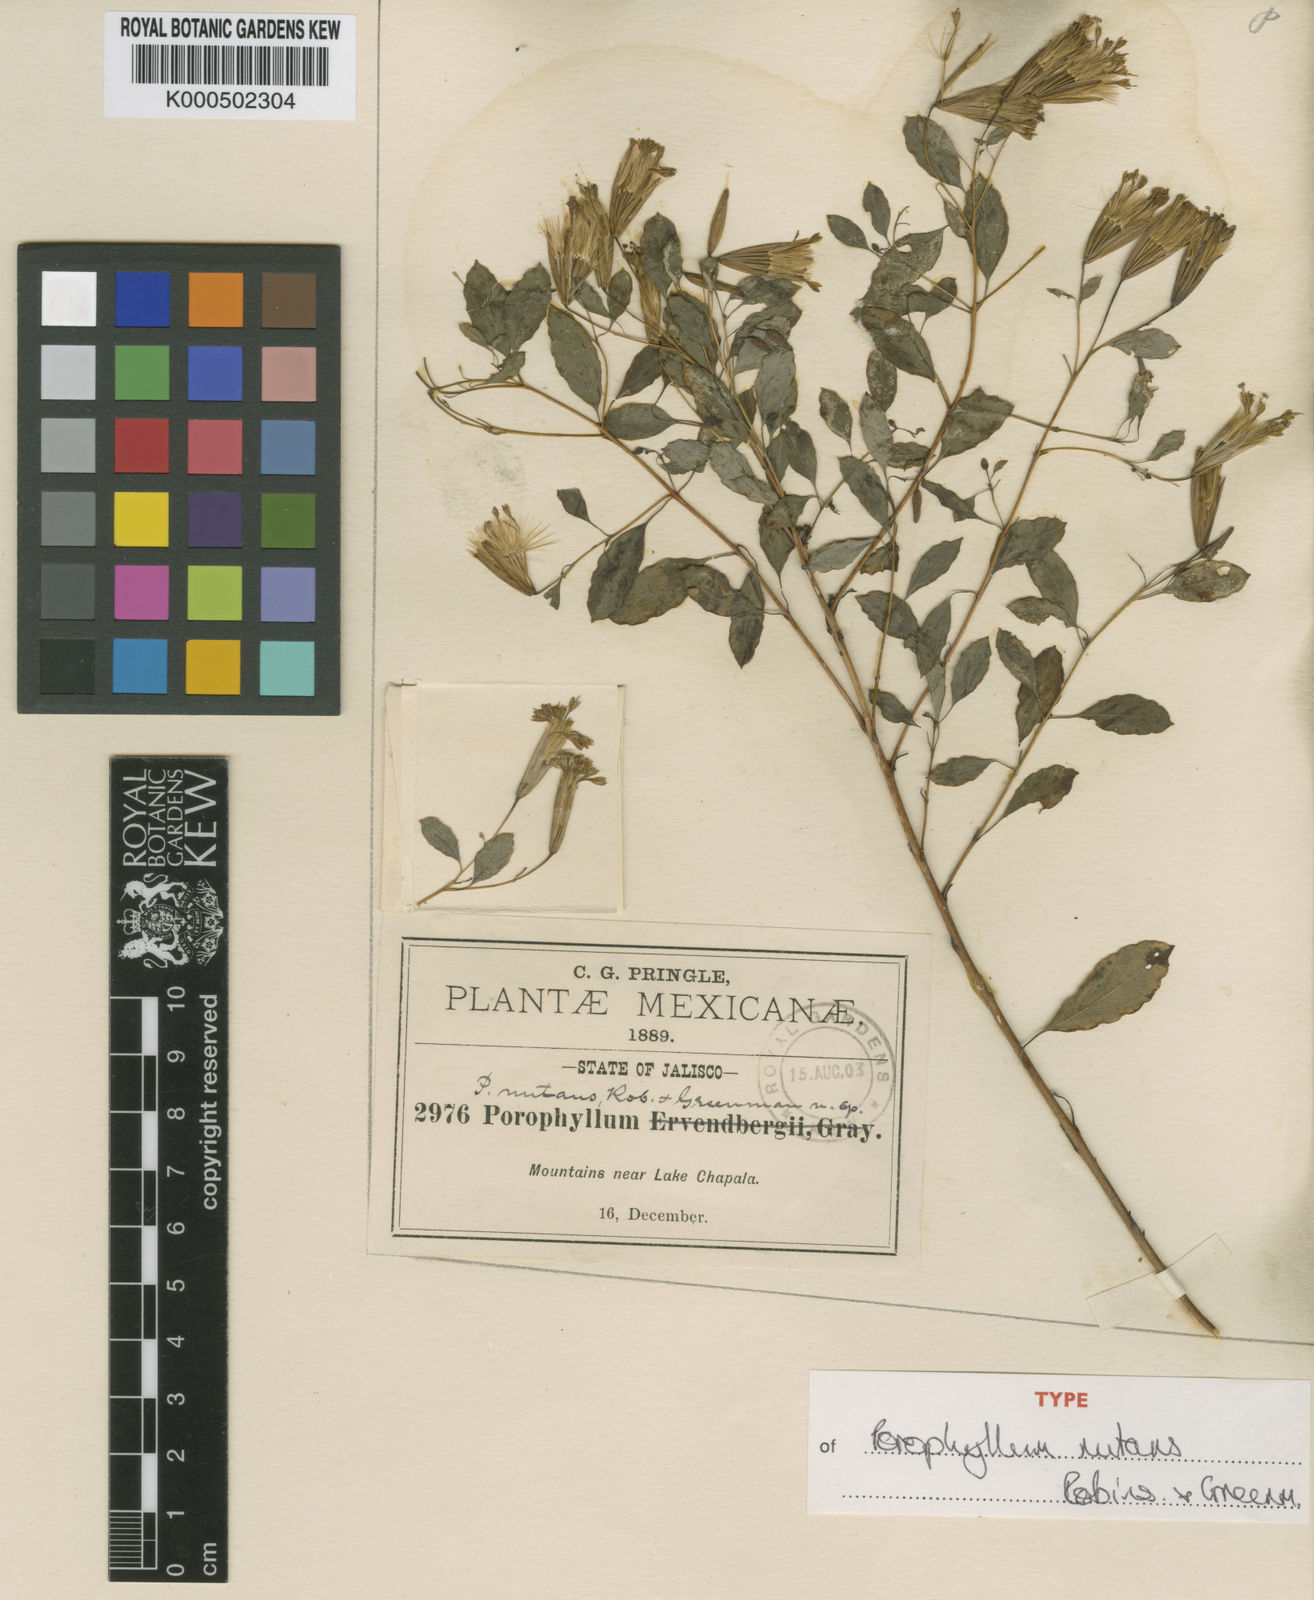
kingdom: Plantae
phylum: Tracheophyta
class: Magnoliopsida
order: Asterales
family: Asteraceae
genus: Porophyllum
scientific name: Porophyllum viridiflorum
